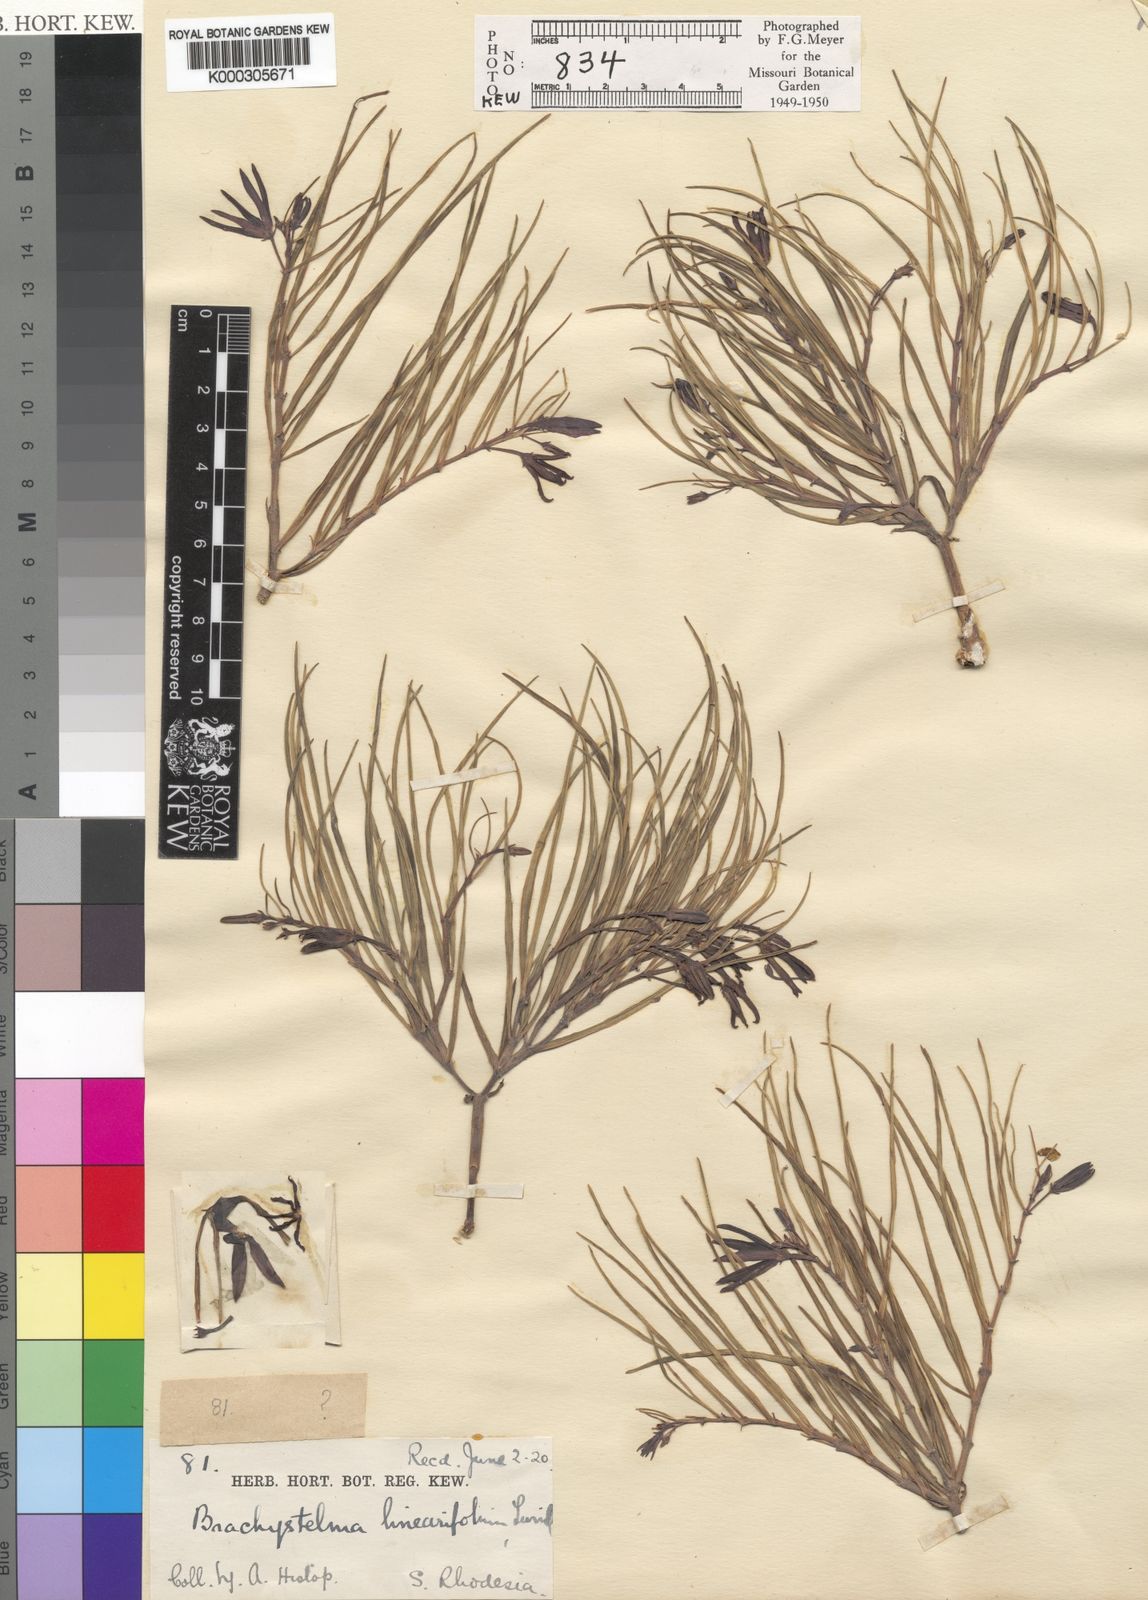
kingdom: Plantae
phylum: Tracheophyta
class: Magnoliopsida
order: Gentianales
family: Apocynaceae
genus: Ceropegia
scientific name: Ceropegia plocamoides
